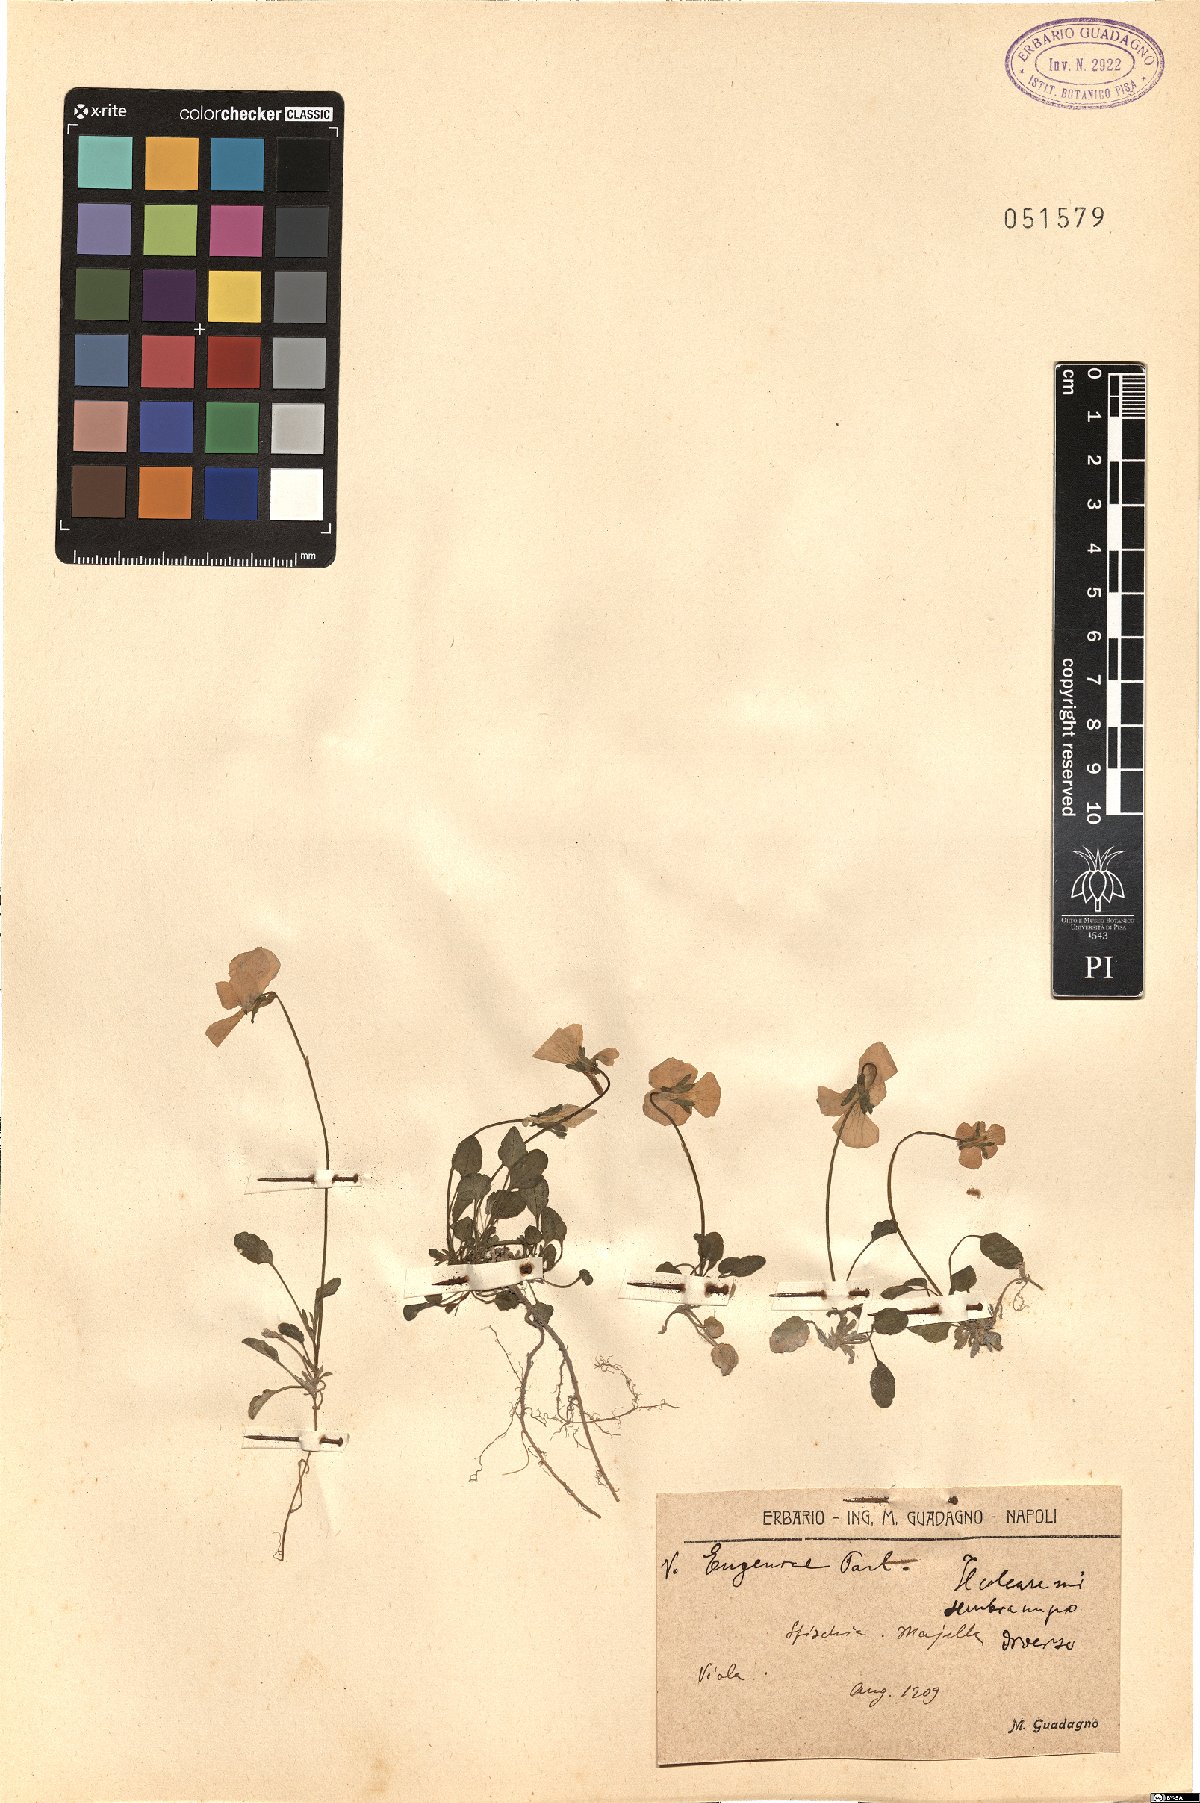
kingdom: Plantae
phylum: Tracheophyta
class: Magnoliopsida
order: Malpighiales
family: Violaceae
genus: Viola
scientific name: Viola eugeniae
